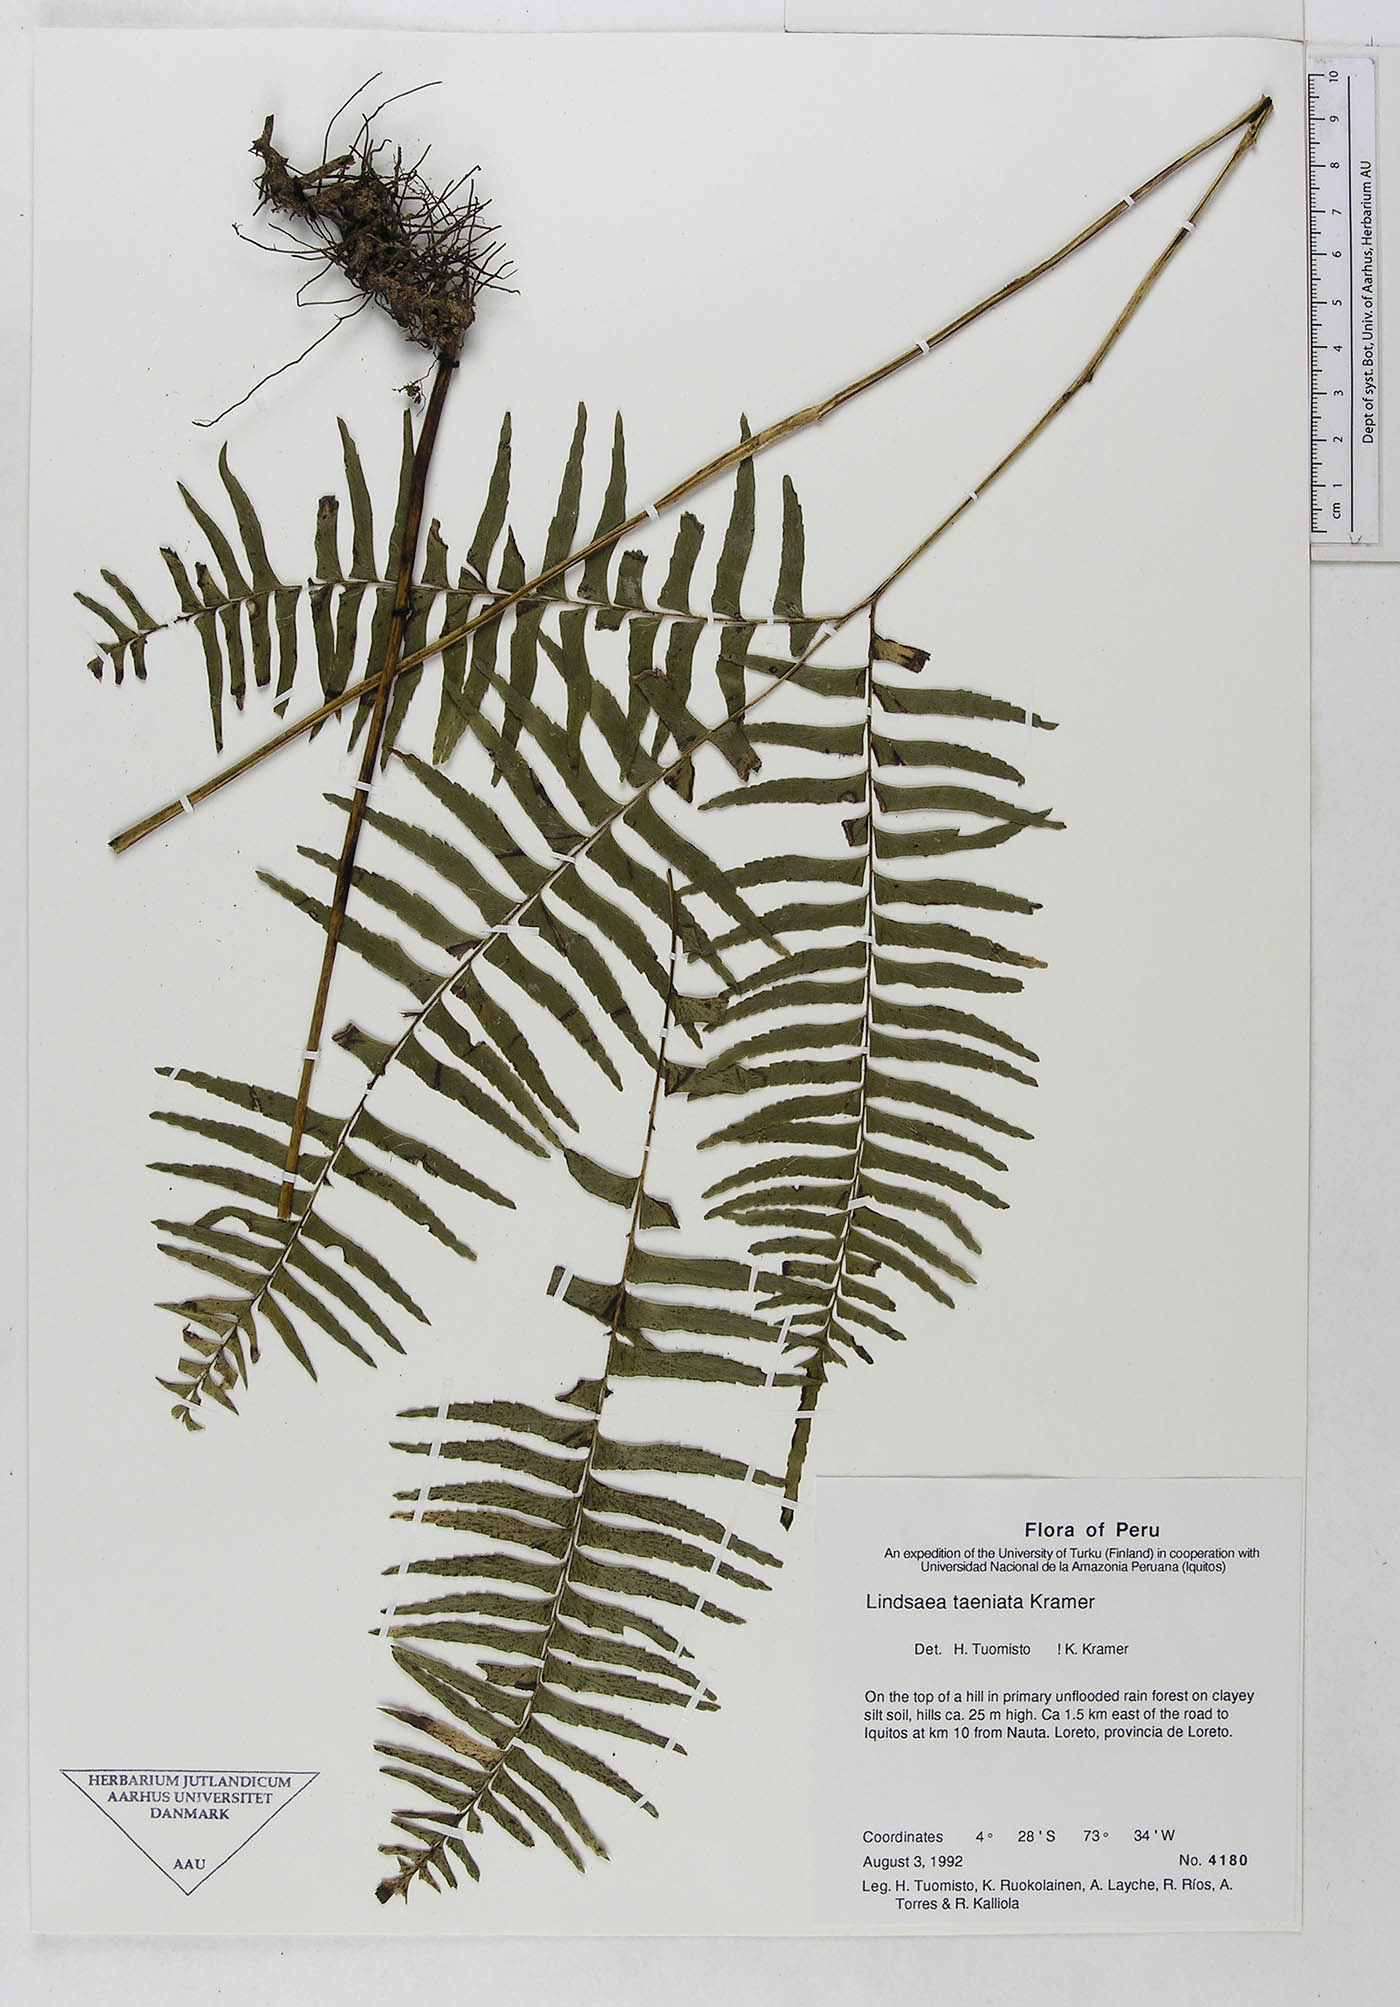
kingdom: Plantae
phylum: Tracheophyta
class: Polypodiopsida
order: Polypodiales
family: Lindsaeaceae
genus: Lindsaea
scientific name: Lindsaea taeniata
